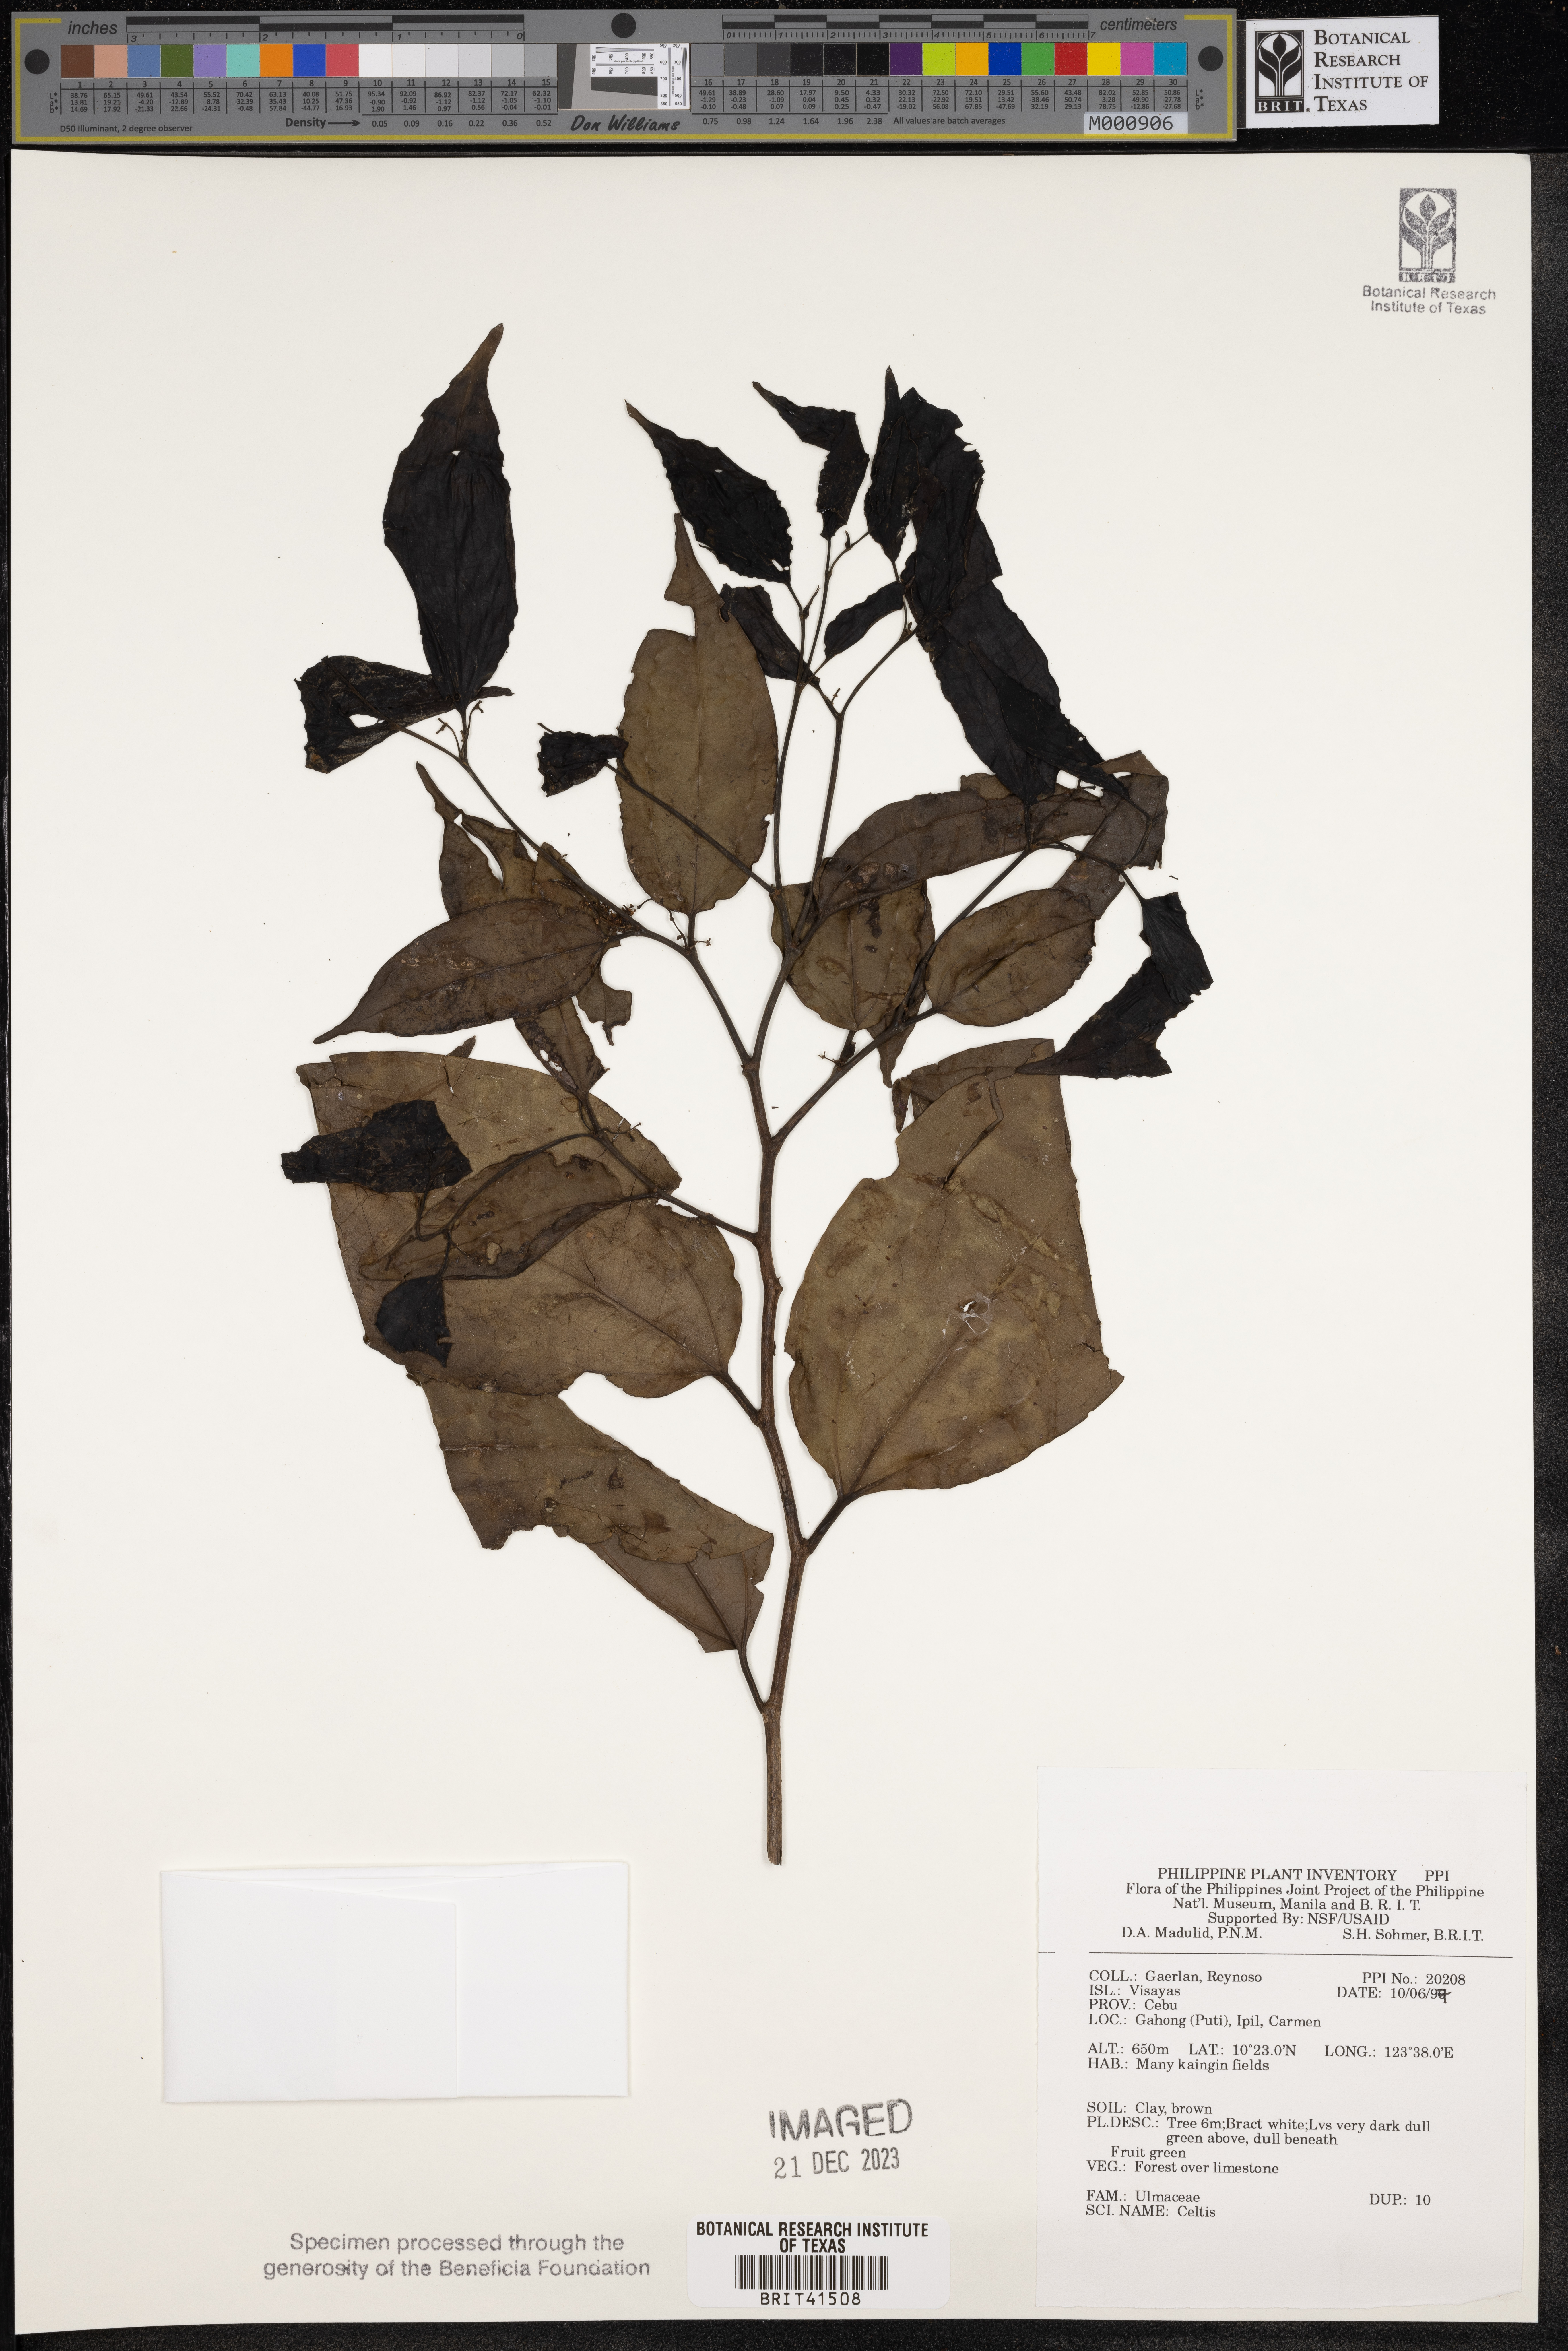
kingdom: Plantae
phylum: Tracheophyta
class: Magnoliopsida
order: Rosales
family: Cannabaceae
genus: Celtis
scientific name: Celtis
